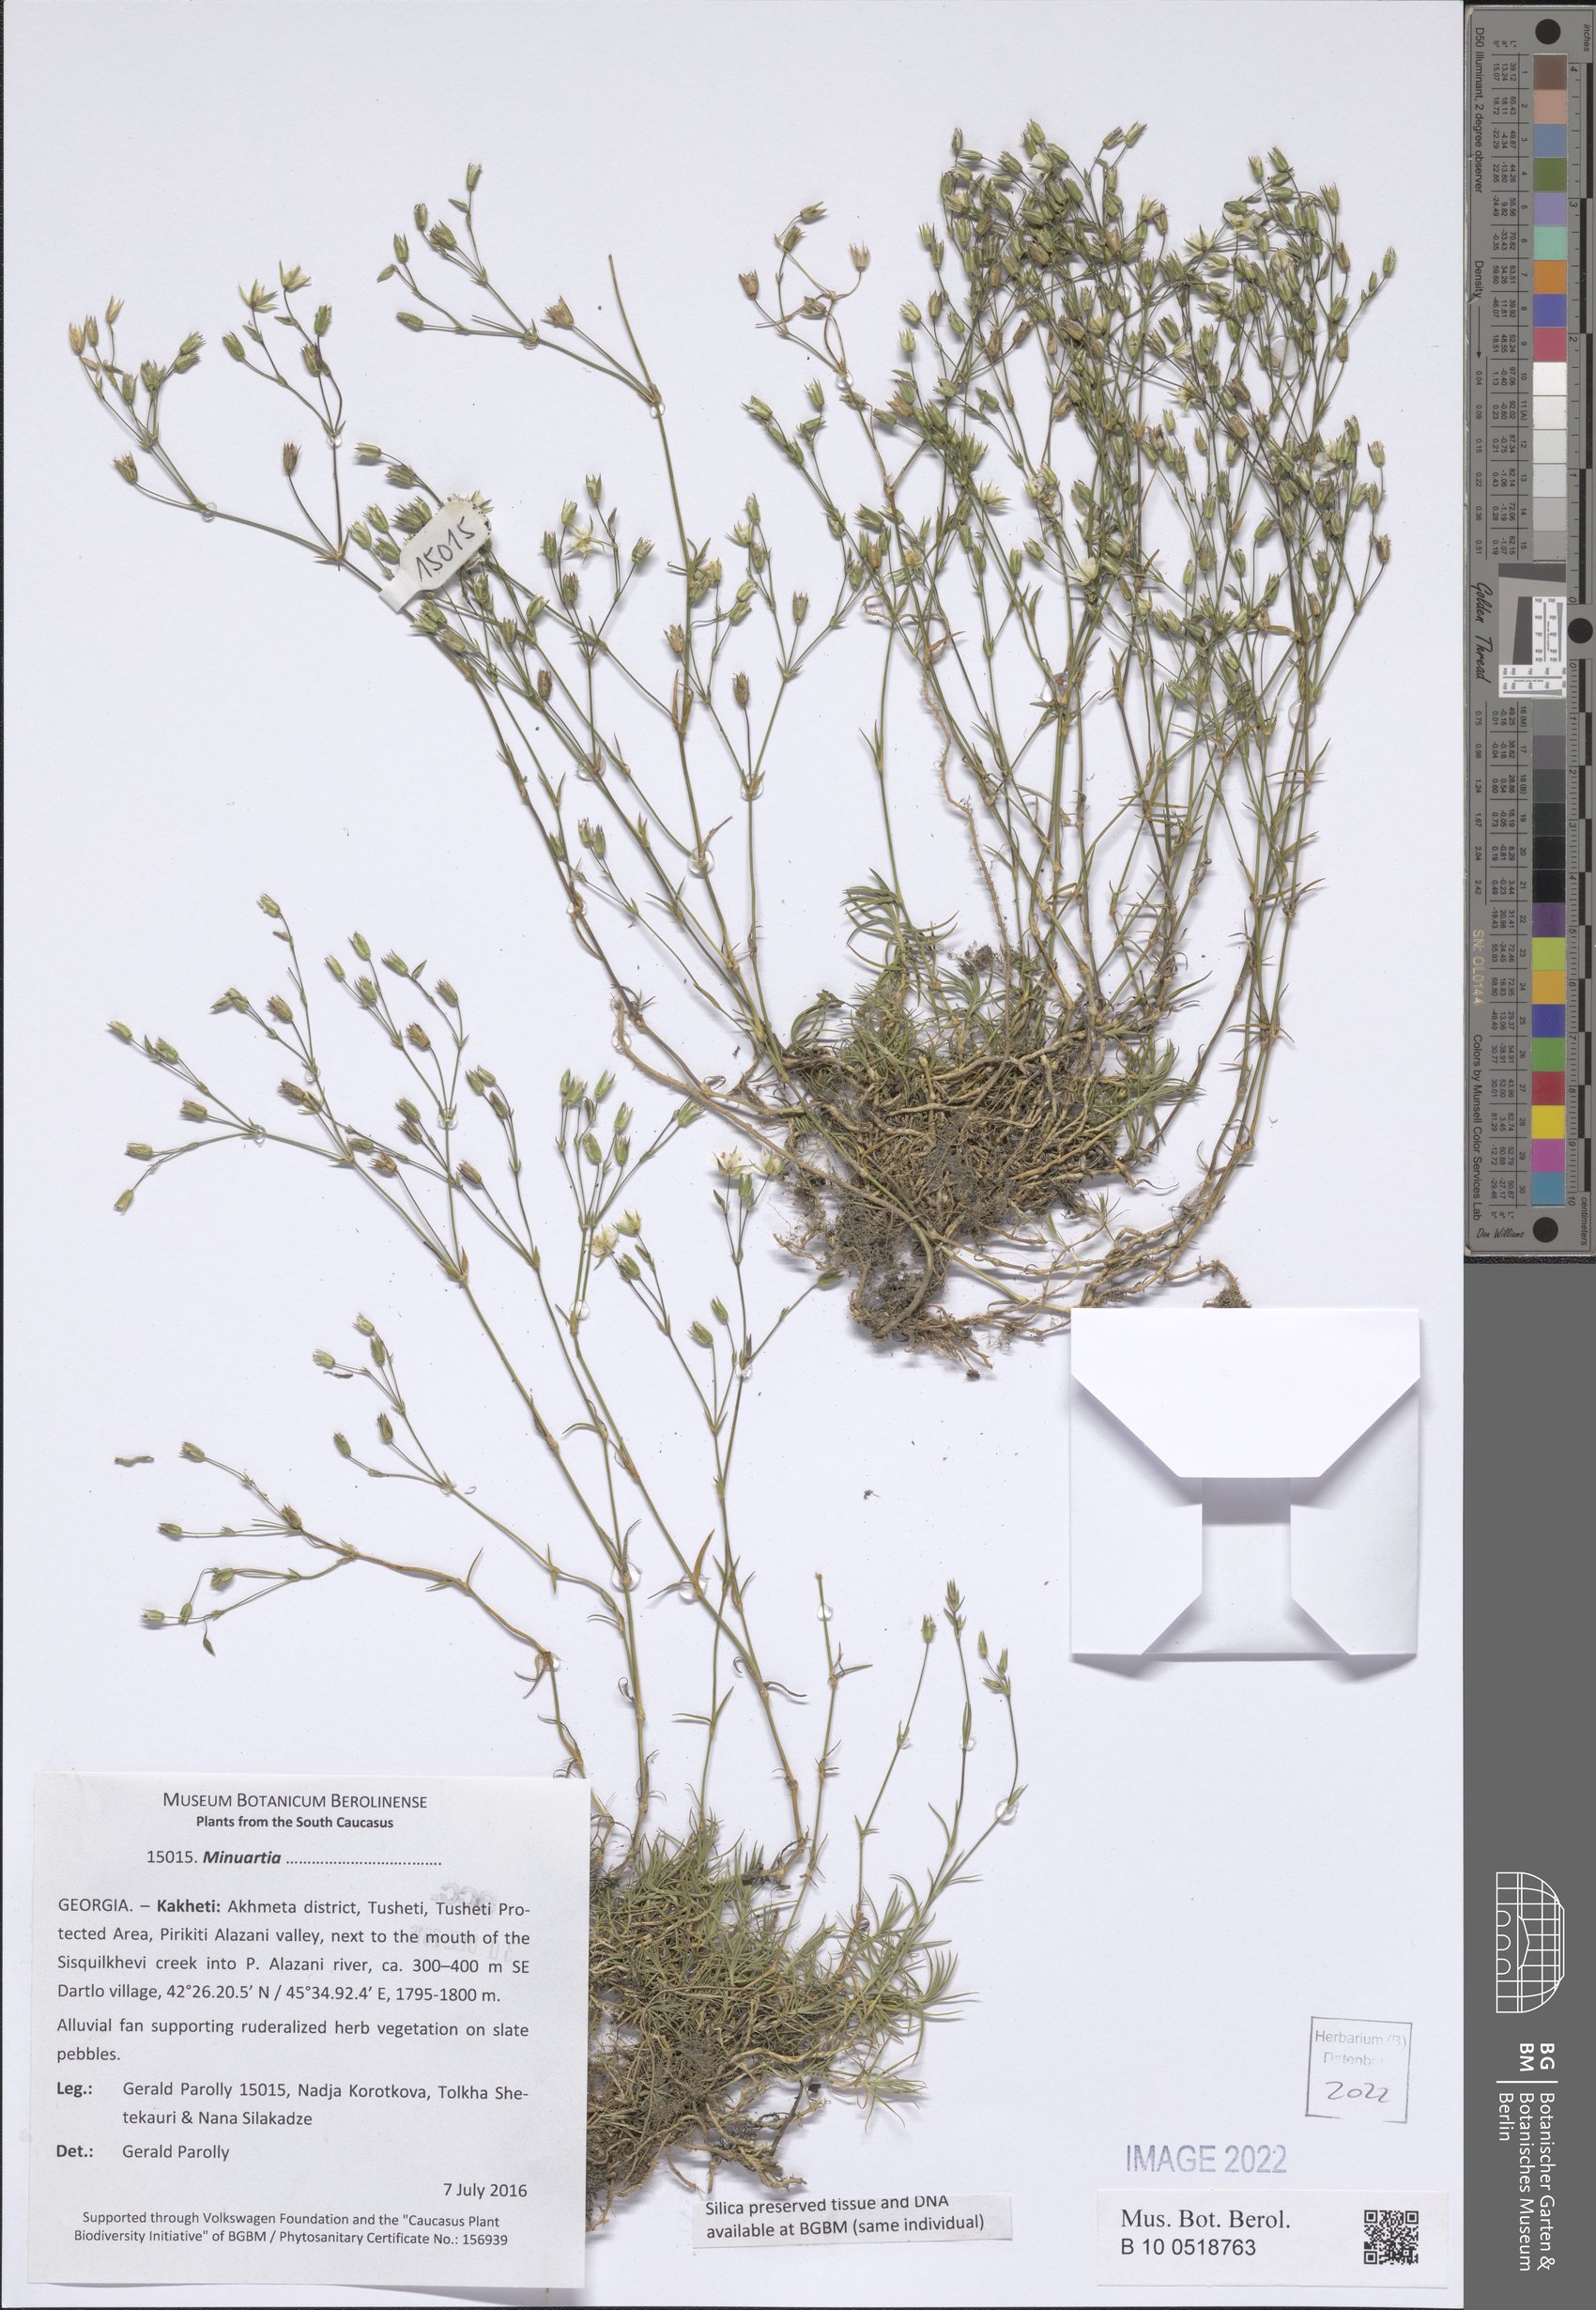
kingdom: Plantae
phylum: Tracheophyta
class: Magnoliopsida
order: Caryophyllales
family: Caryophyllaceae
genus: Minuartia
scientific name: Minuartia
